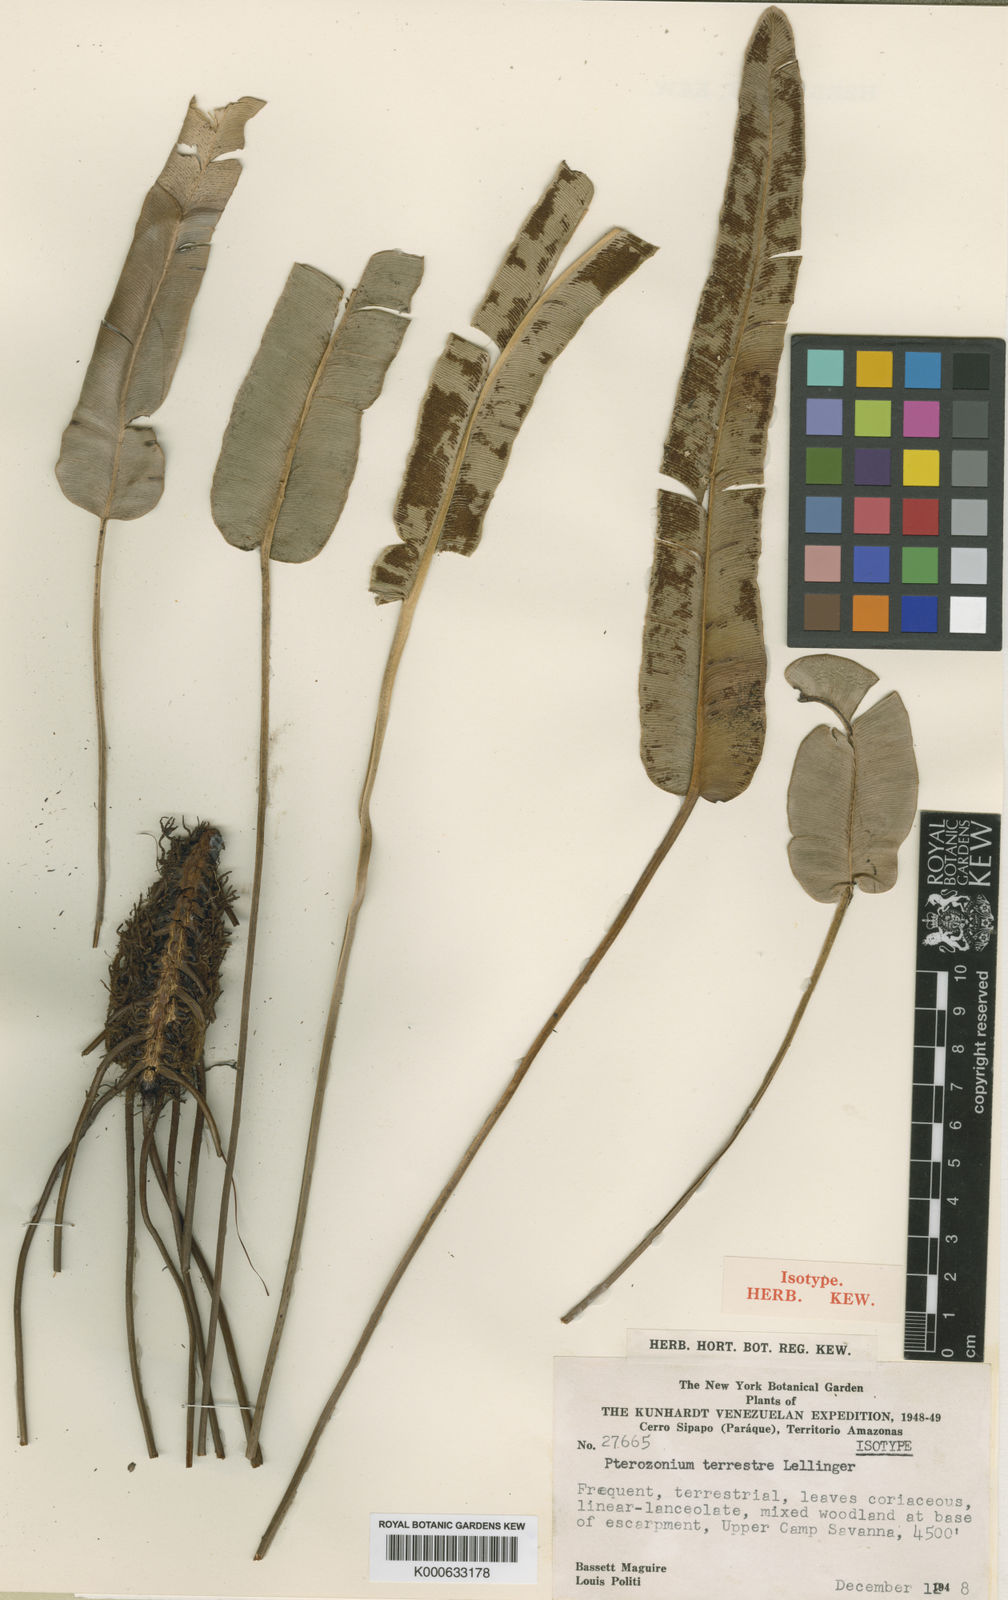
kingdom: Plantae
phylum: Tracheophyta
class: Polypodiopsida
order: Polypodiales
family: Pteridaceae
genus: Pterozonium
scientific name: Pterozonium terrestre
